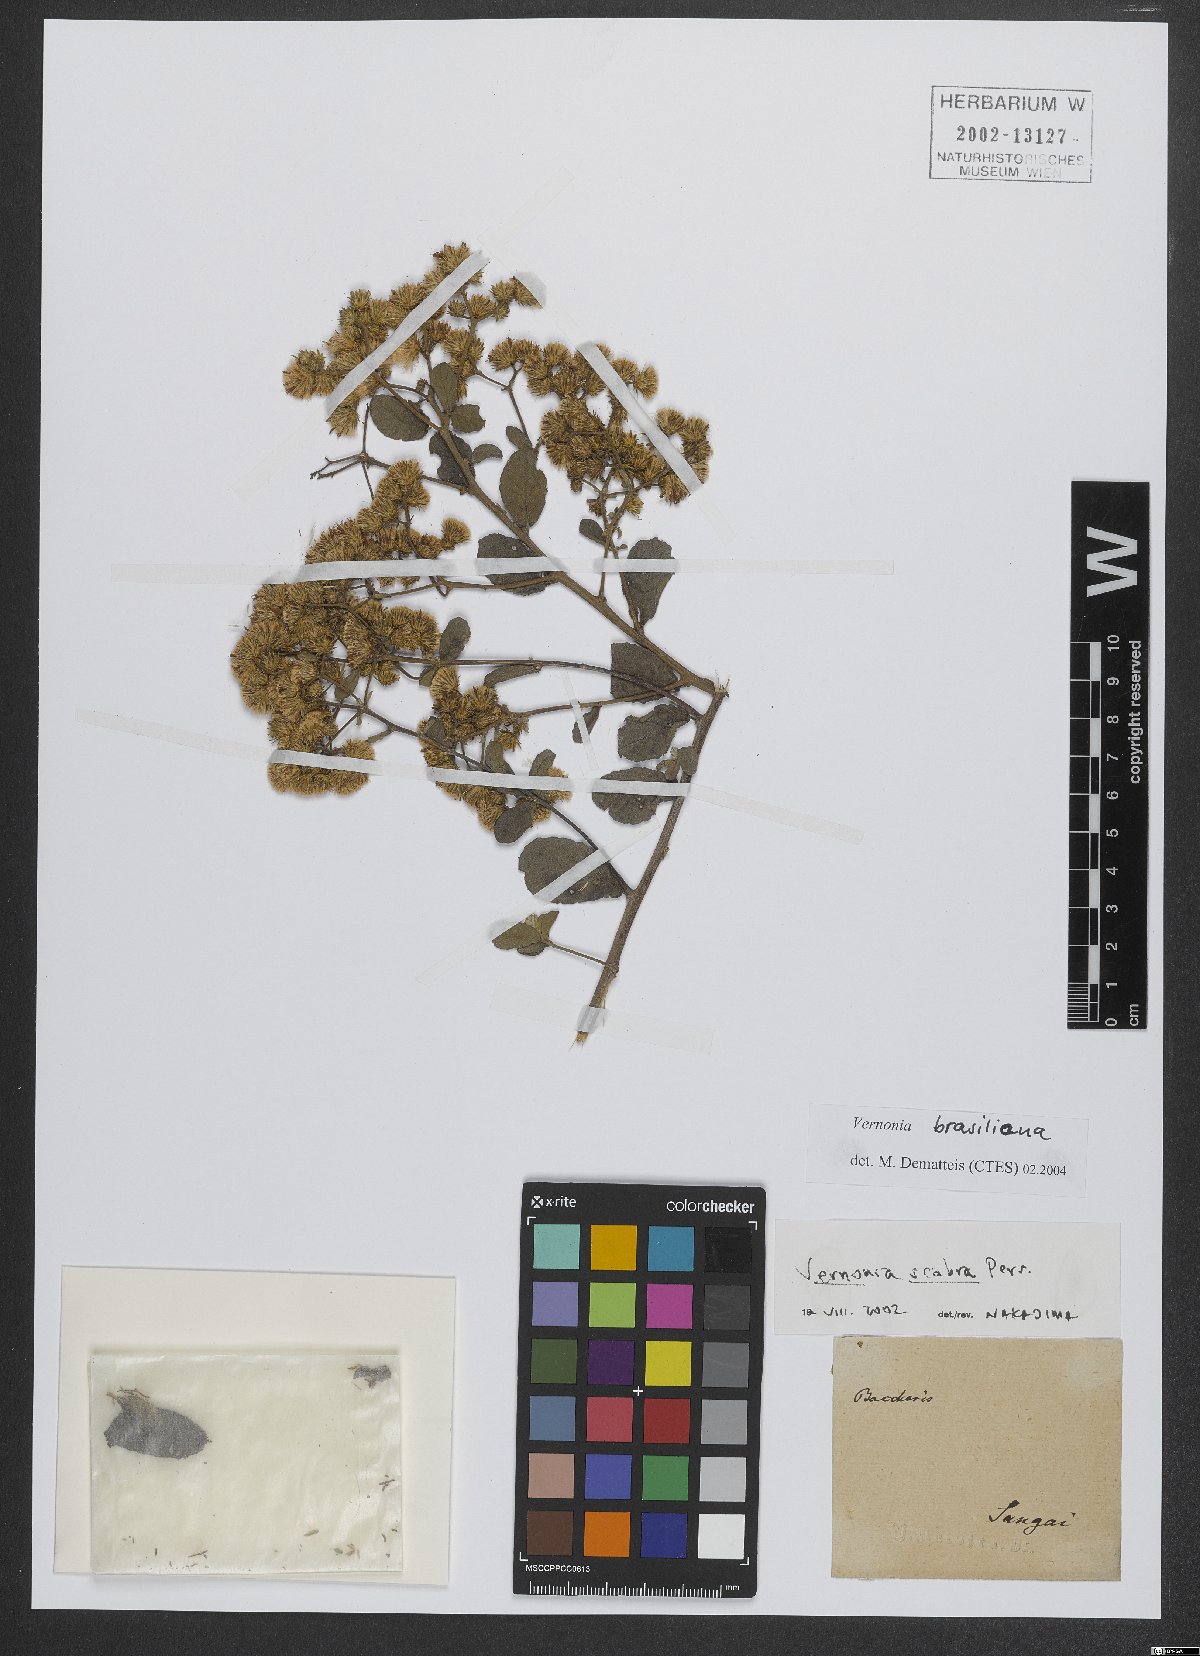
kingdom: Plantae
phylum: Tracheophyta
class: Magnoliopsida
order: Asterales
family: Asteraceae
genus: Vernonanthura
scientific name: Vernonanthura brasiliana
